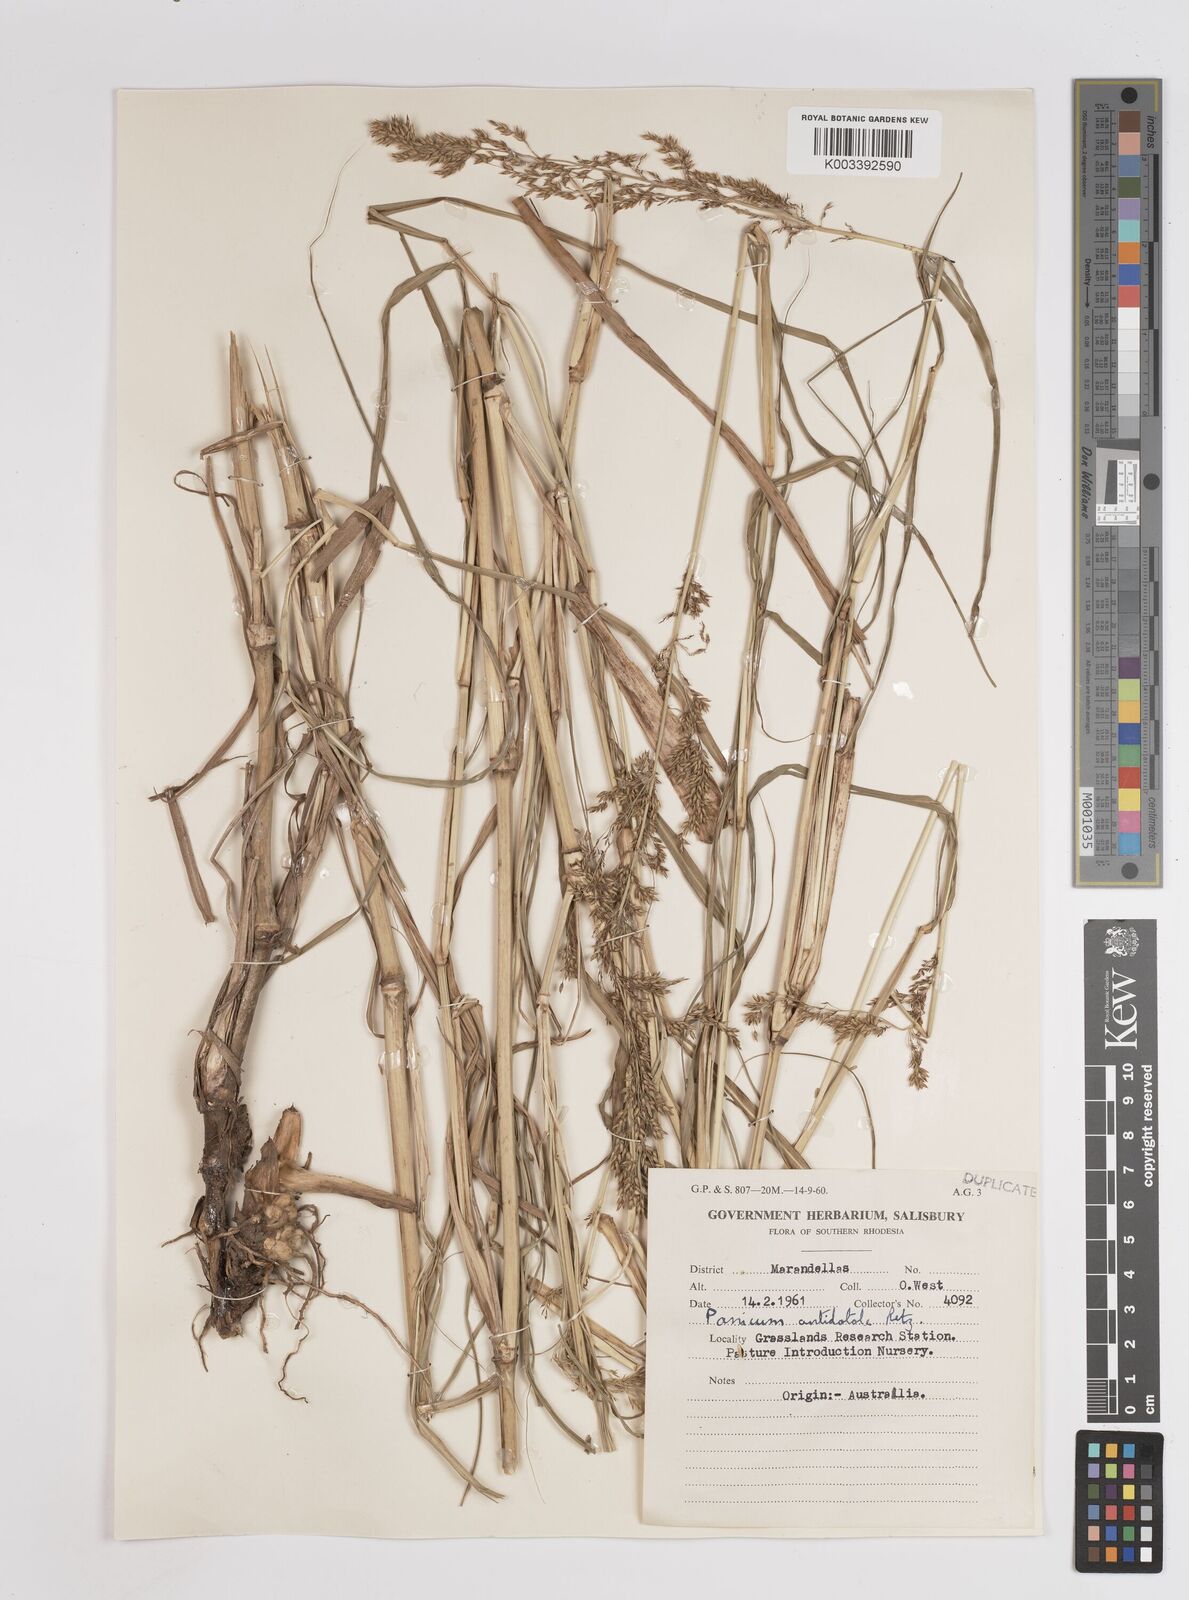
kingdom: Plantae
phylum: Tracheophyta
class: Liliopsida
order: Poales
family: Poaceae
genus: Panicum
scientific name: Panicum antidotale
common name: Blue panicum
